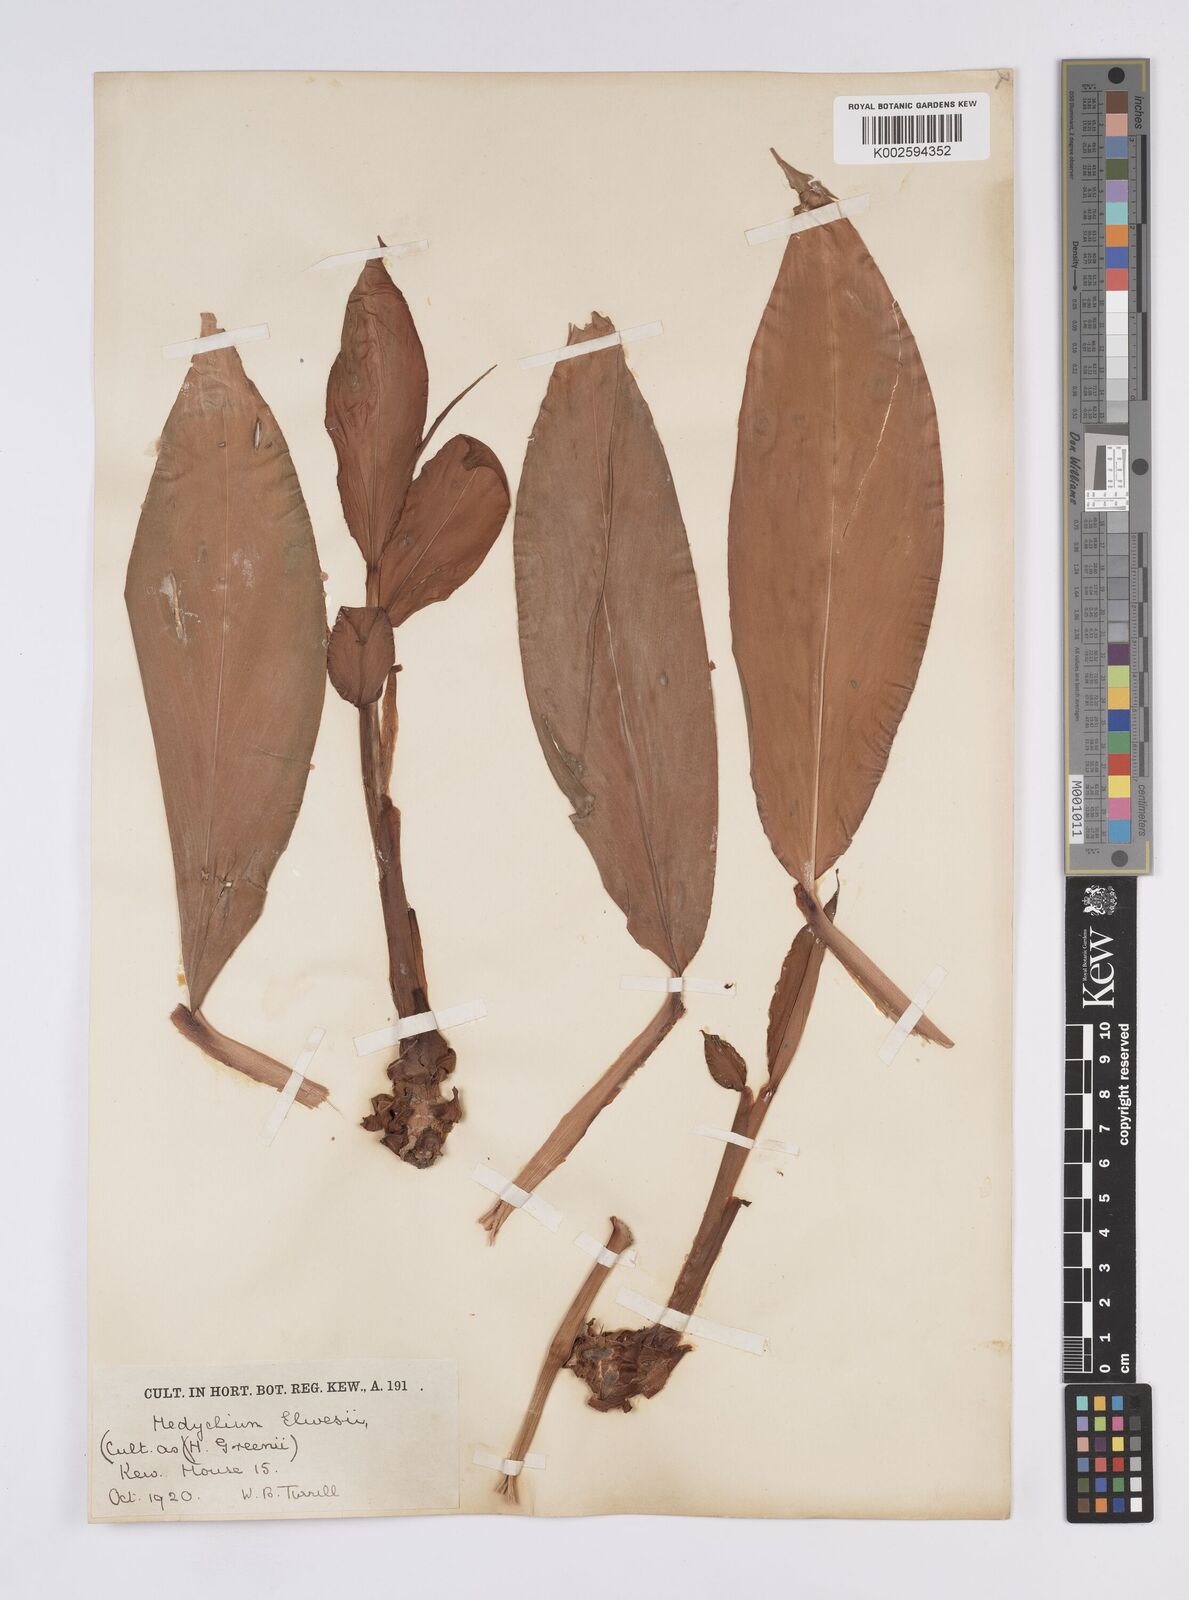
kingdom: Plantae
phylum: Tracheophyta
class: Liliopsida
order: Zingiberales
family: Zingiberaceae
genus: Hedychium
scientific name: Hedychium elwesii
